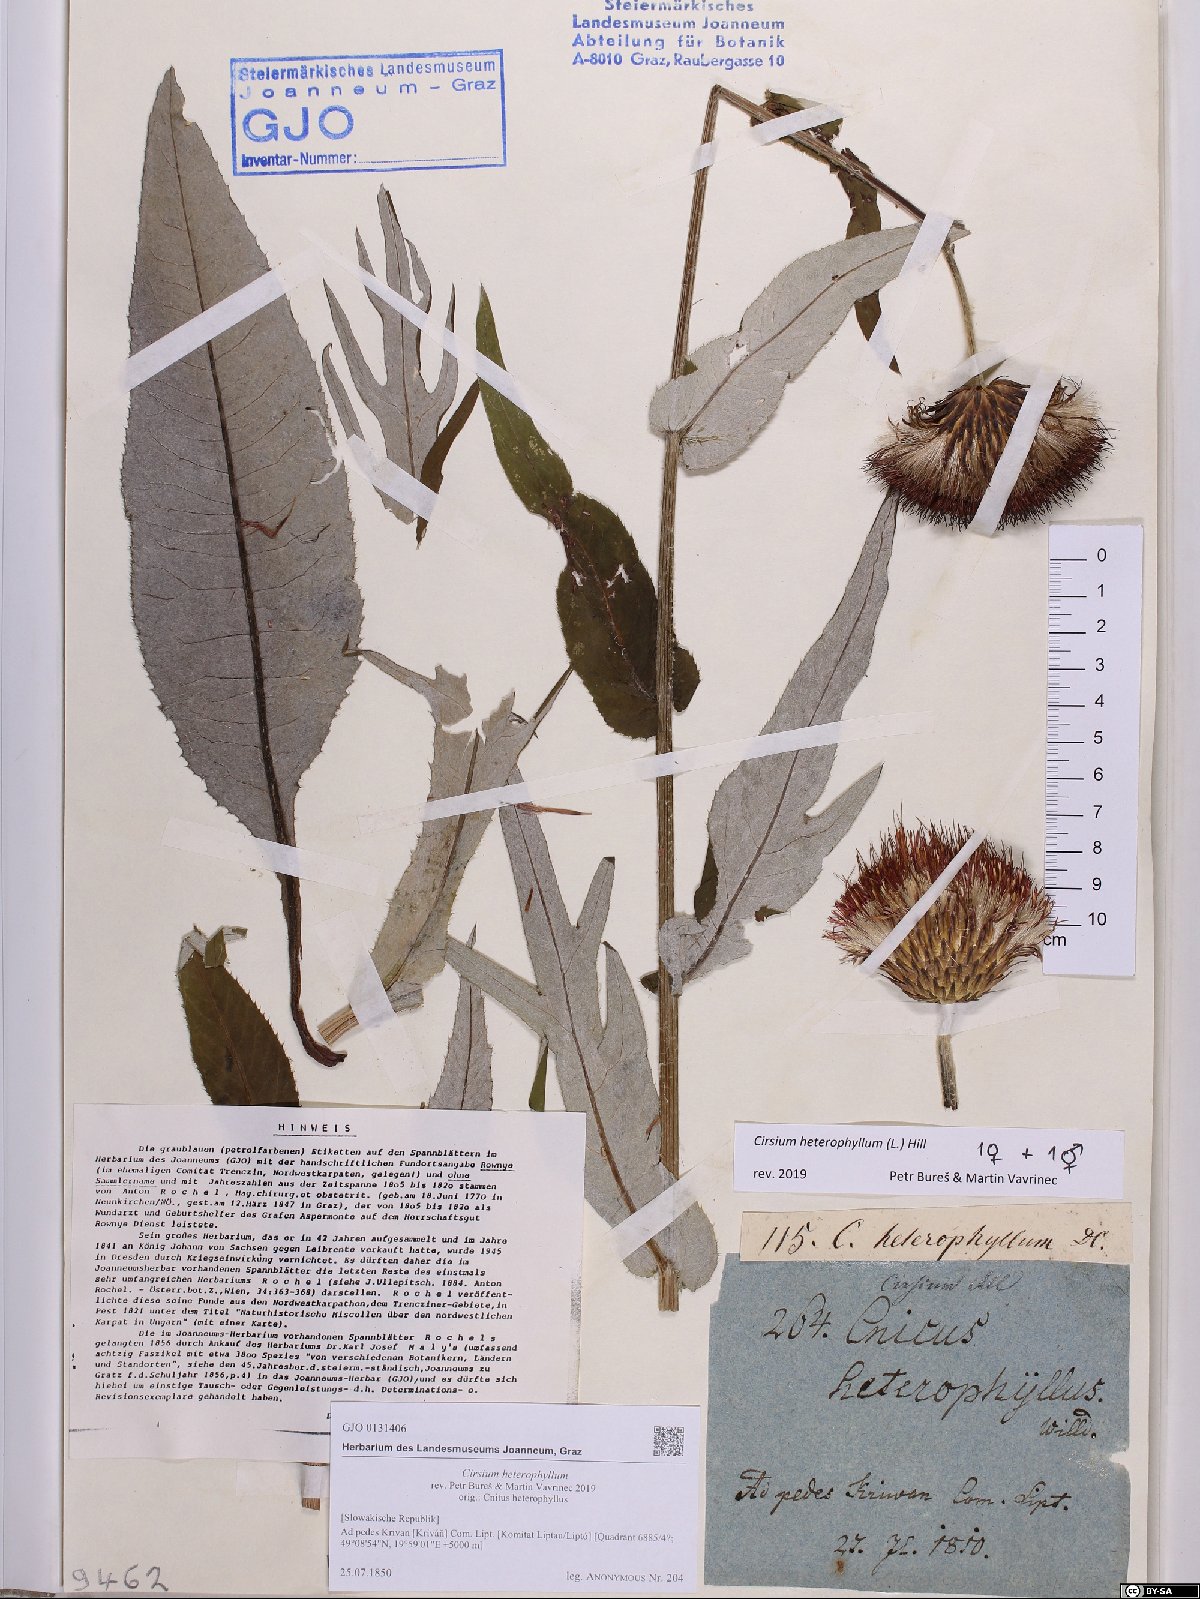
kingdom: Plantae
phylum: Tracheophyta
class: Magnoliopsida
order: Asterales
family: Asteraceae
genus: Cirsium
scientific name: Cirsium heterophyllum
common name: Melancholy thistle
